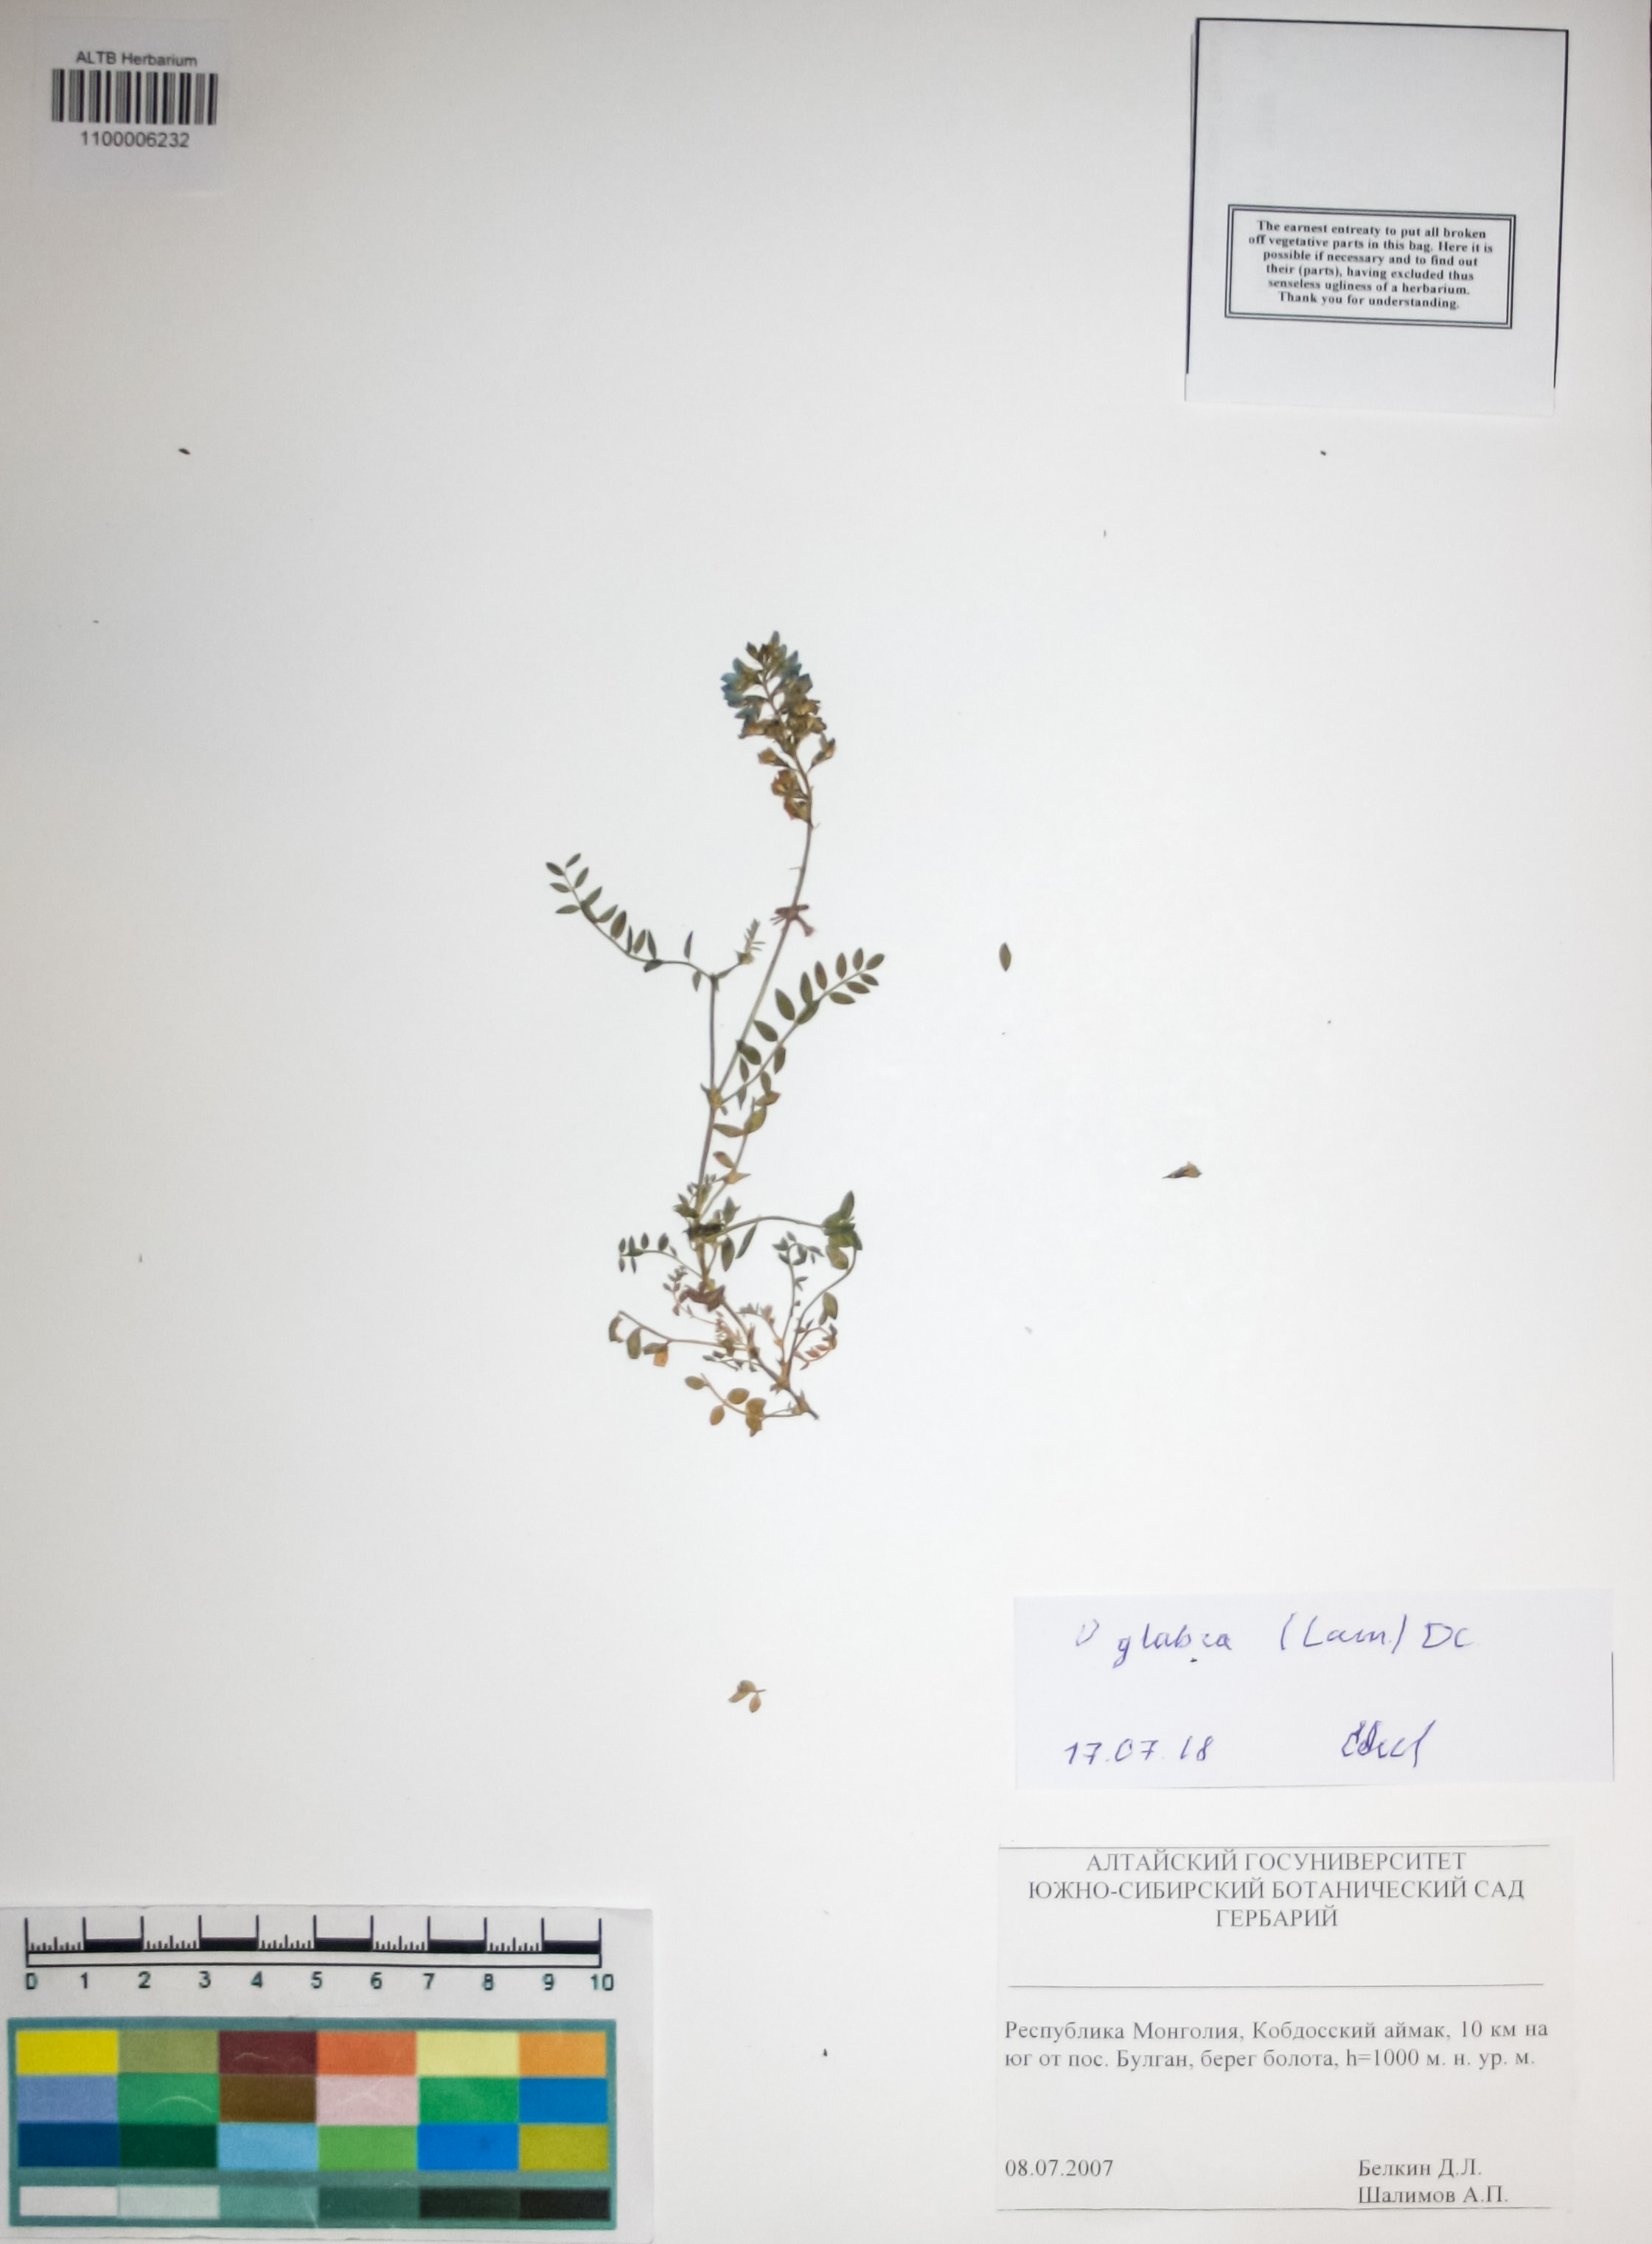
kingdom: Plantae
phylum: Tracheophyta
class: Magnoliopsida
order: Fabales
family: Fabaceae
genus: Oxytropis
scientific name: Oxytropis glabra
